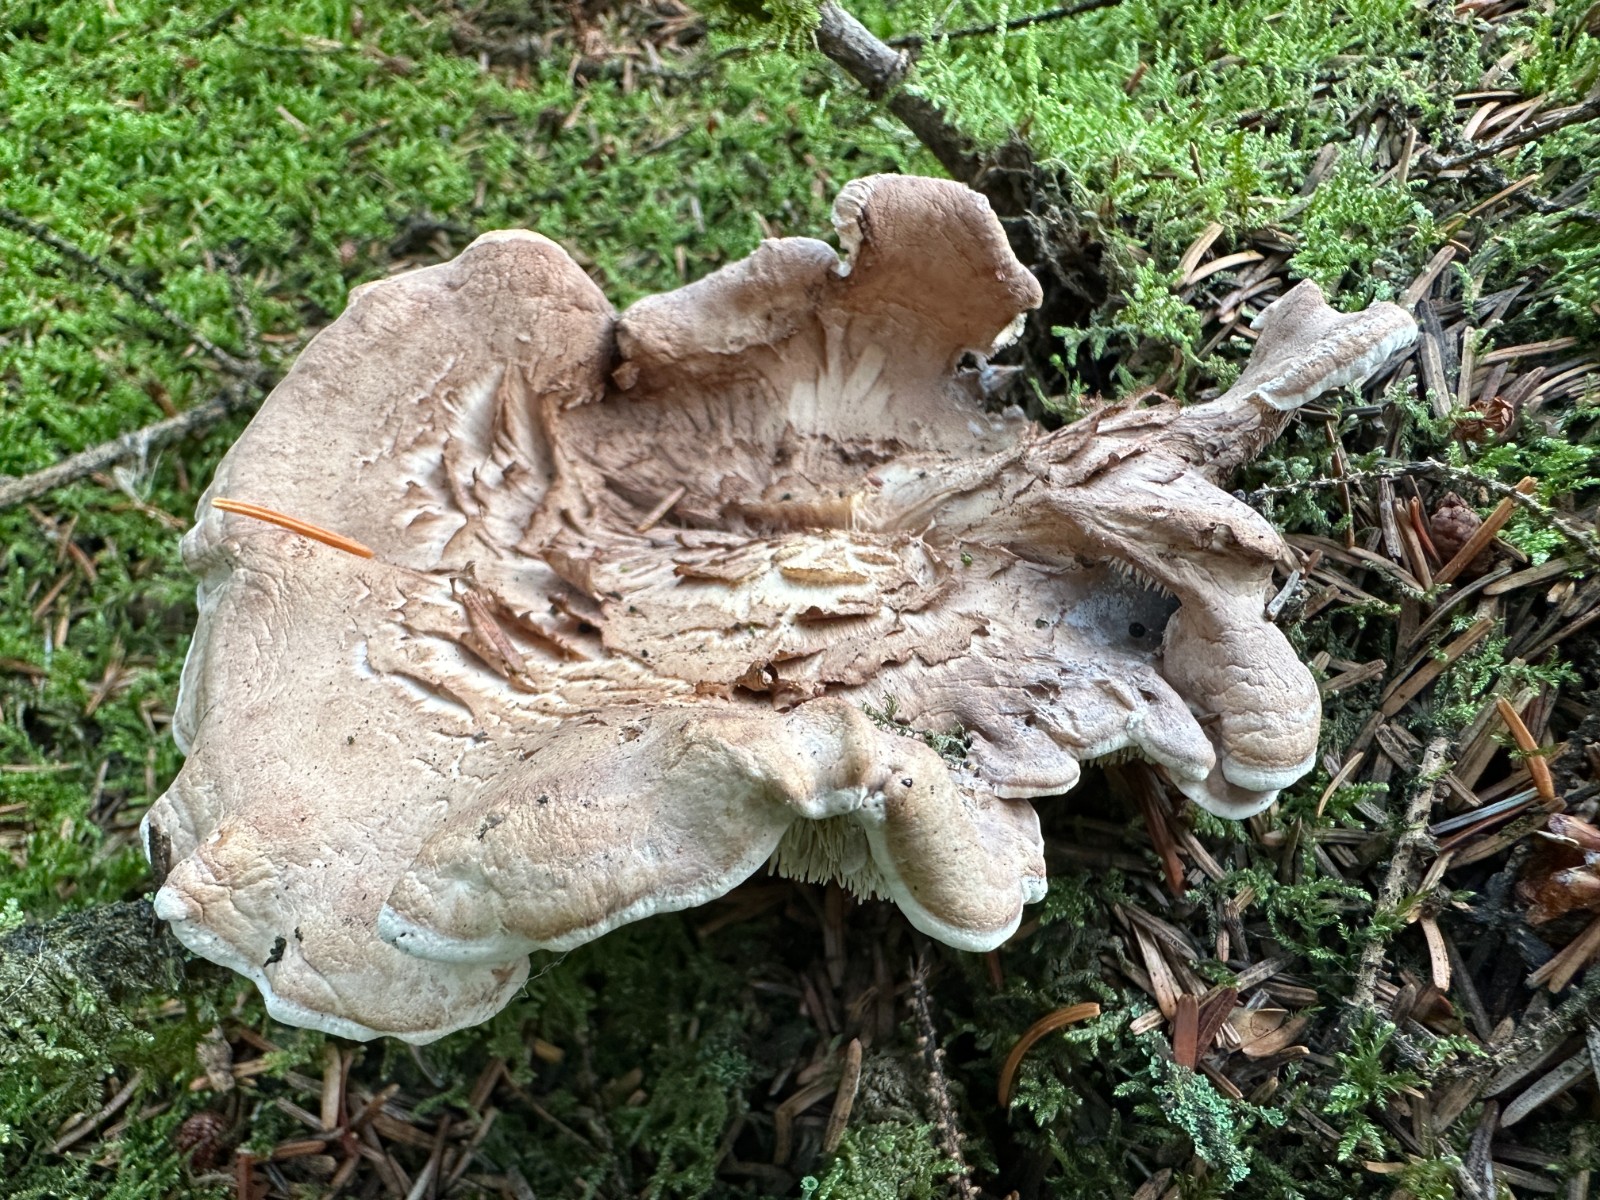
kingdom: Fungi
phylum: Basidiomycota
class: Agaricomycetes
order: Thelephorales
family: Thelephoraceae
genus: Phellodon
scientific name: Phellodon violascens
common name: violetbrun duftpigsvamp
